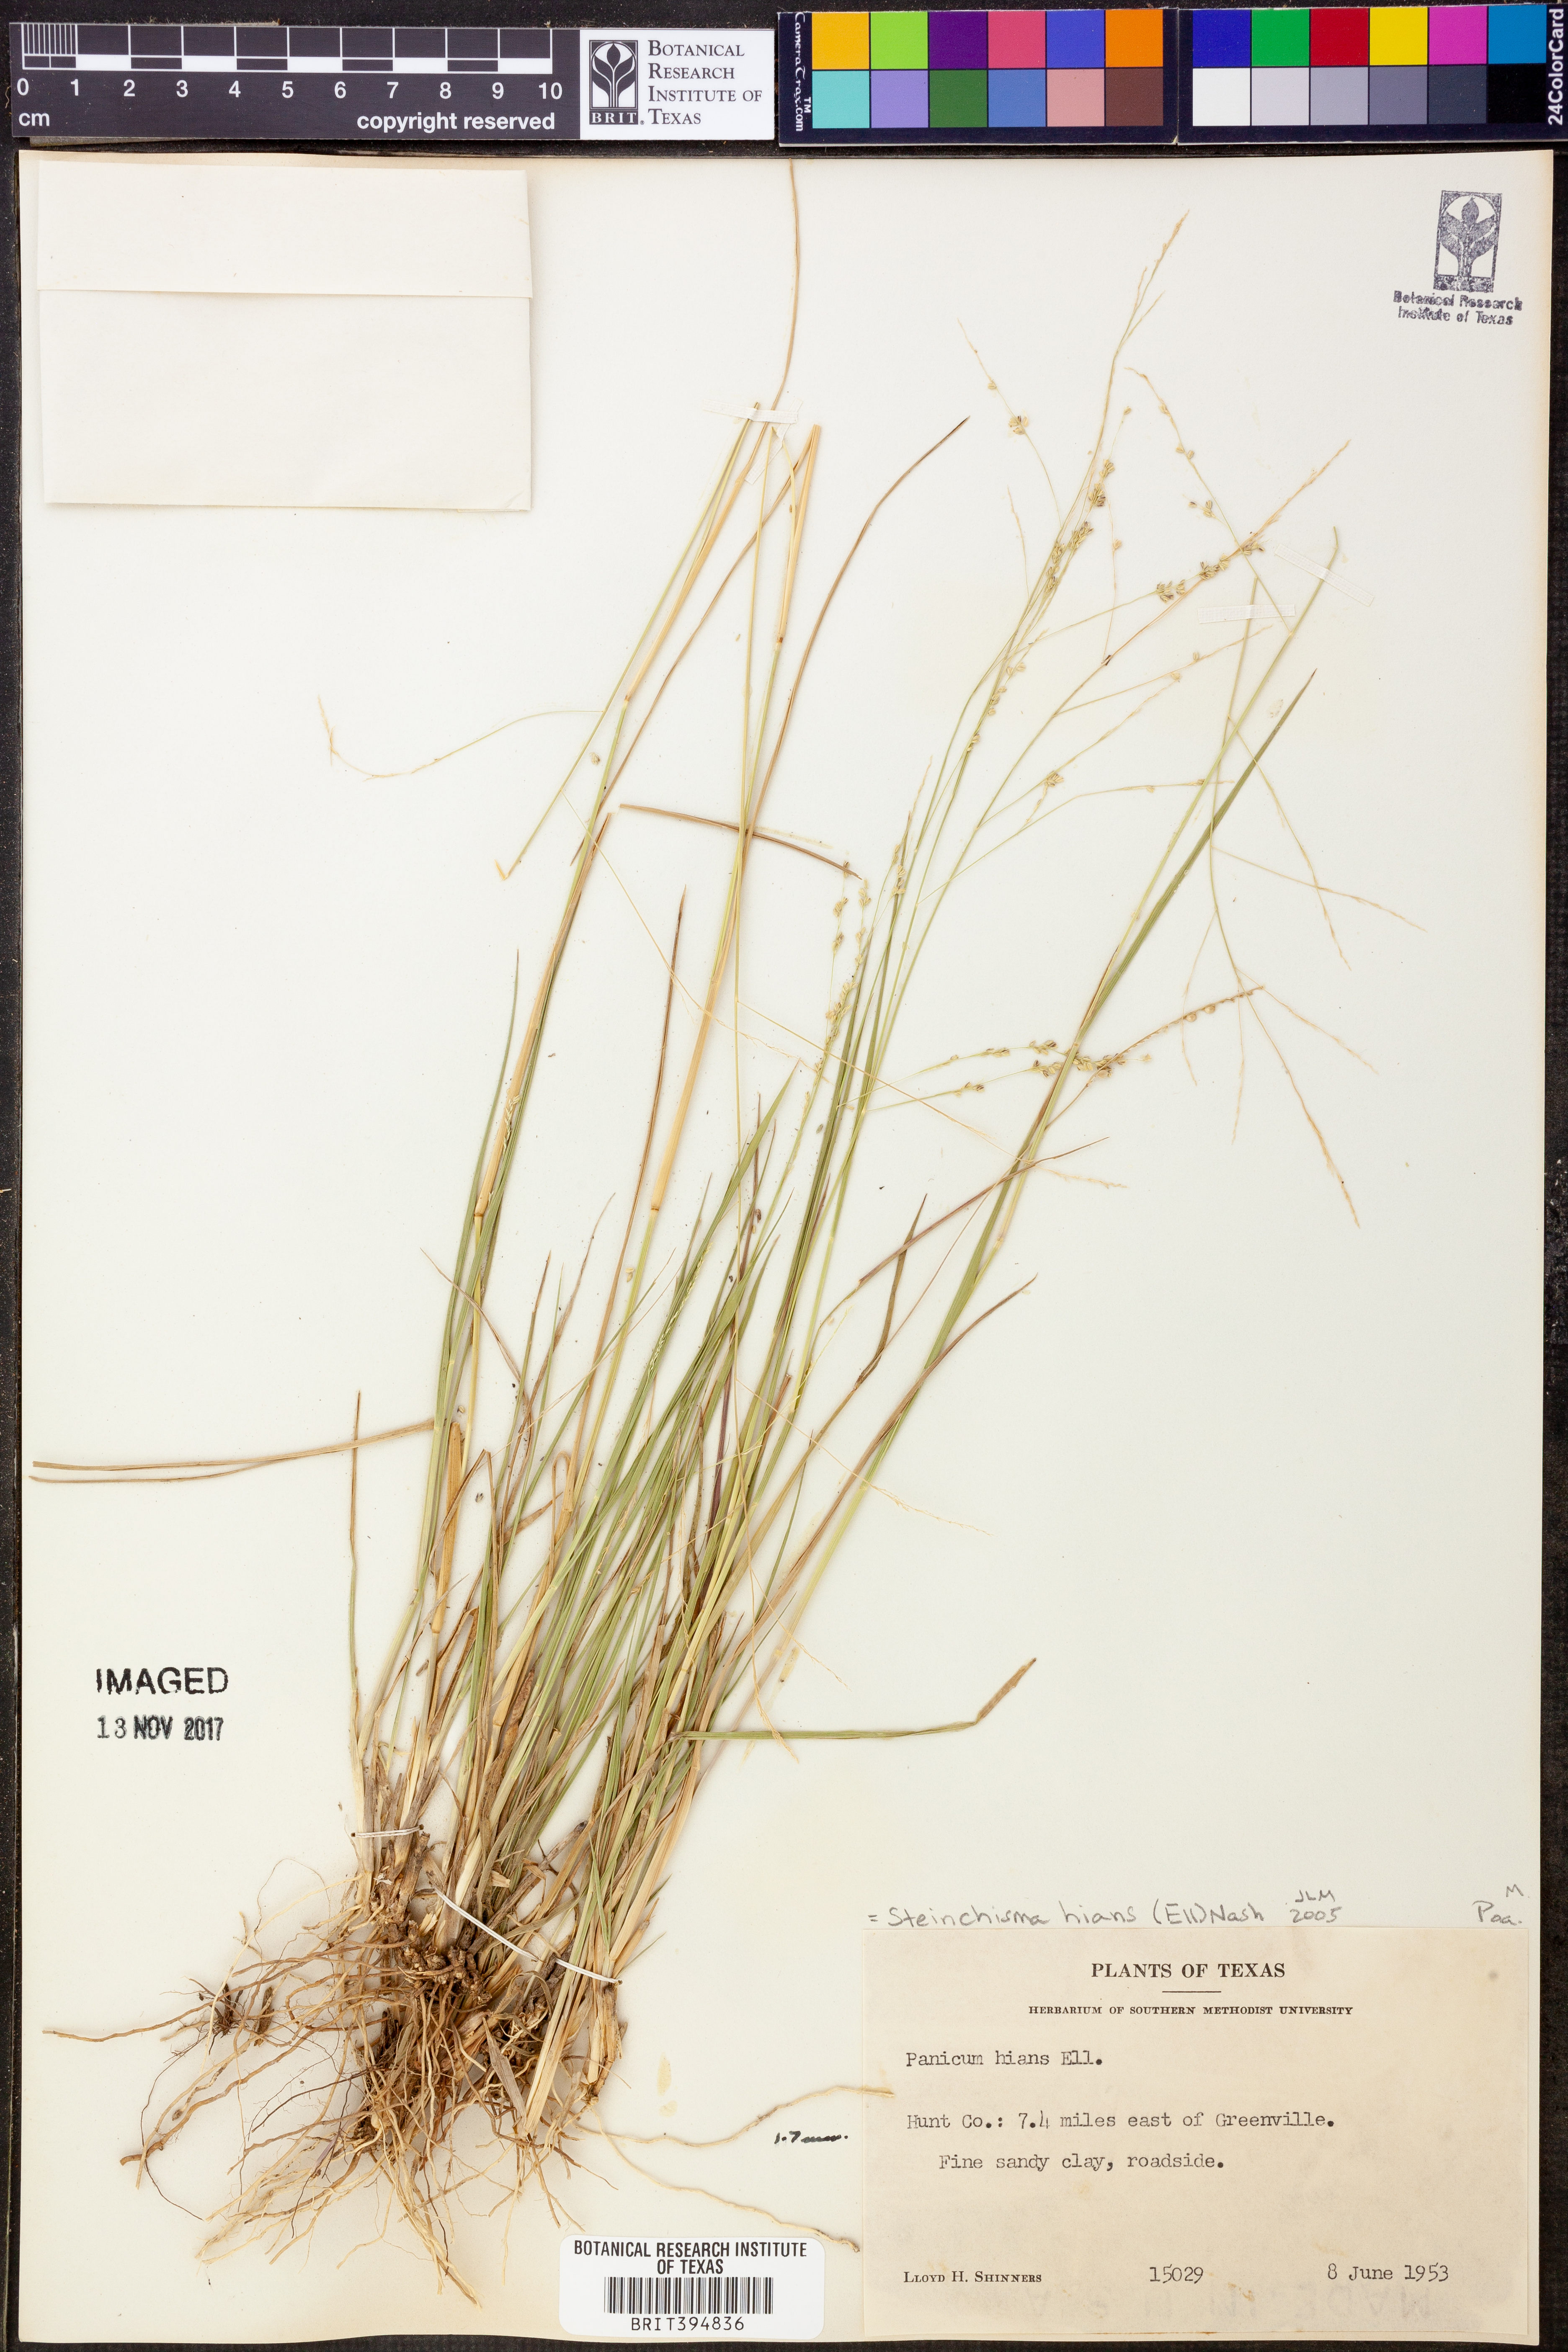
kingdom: Plantae
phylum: Tracheophyta
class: Liliopsida
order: Poales
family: Poaceae
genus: Steinchisma
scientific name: Steinchisma hians
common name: Gaping panic grass
